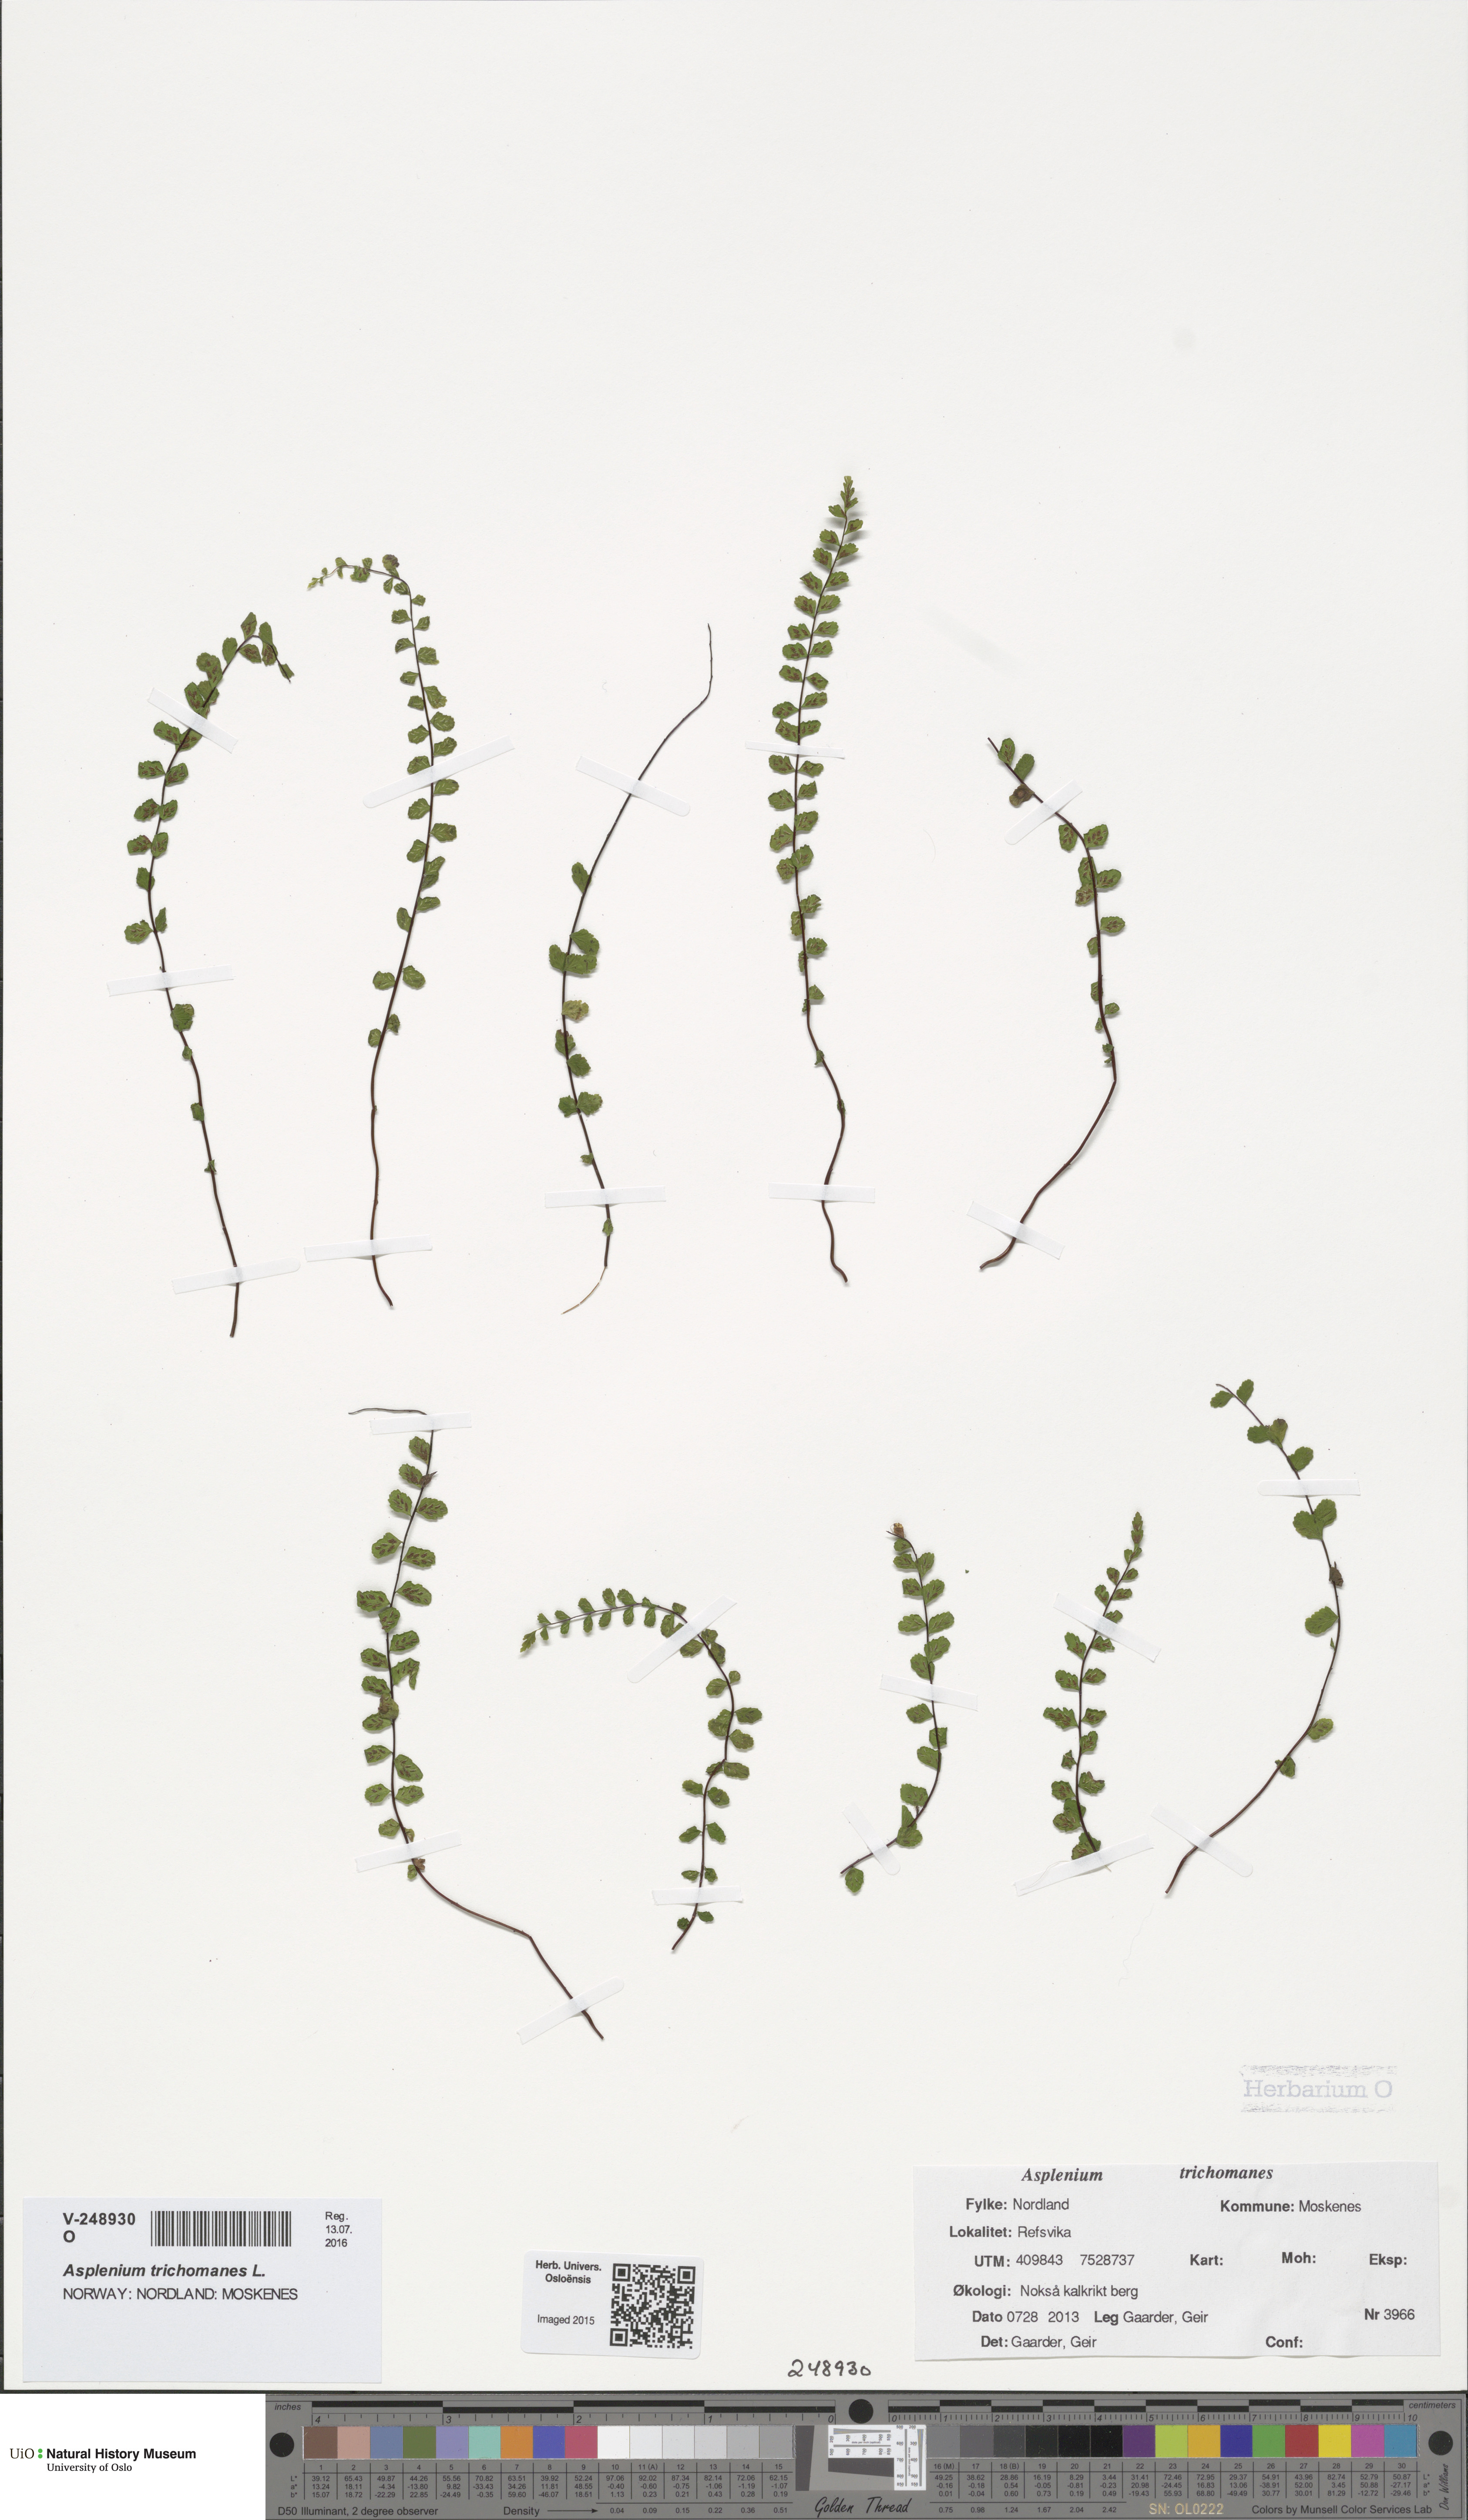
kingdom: Plantae
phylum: Tracheophyta
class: Polypodiopsida
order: Polypodiales
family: Aspleniaceae
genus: Asplenium
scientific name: Asplenium trichomanes
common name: Maidenhair spleenwort
